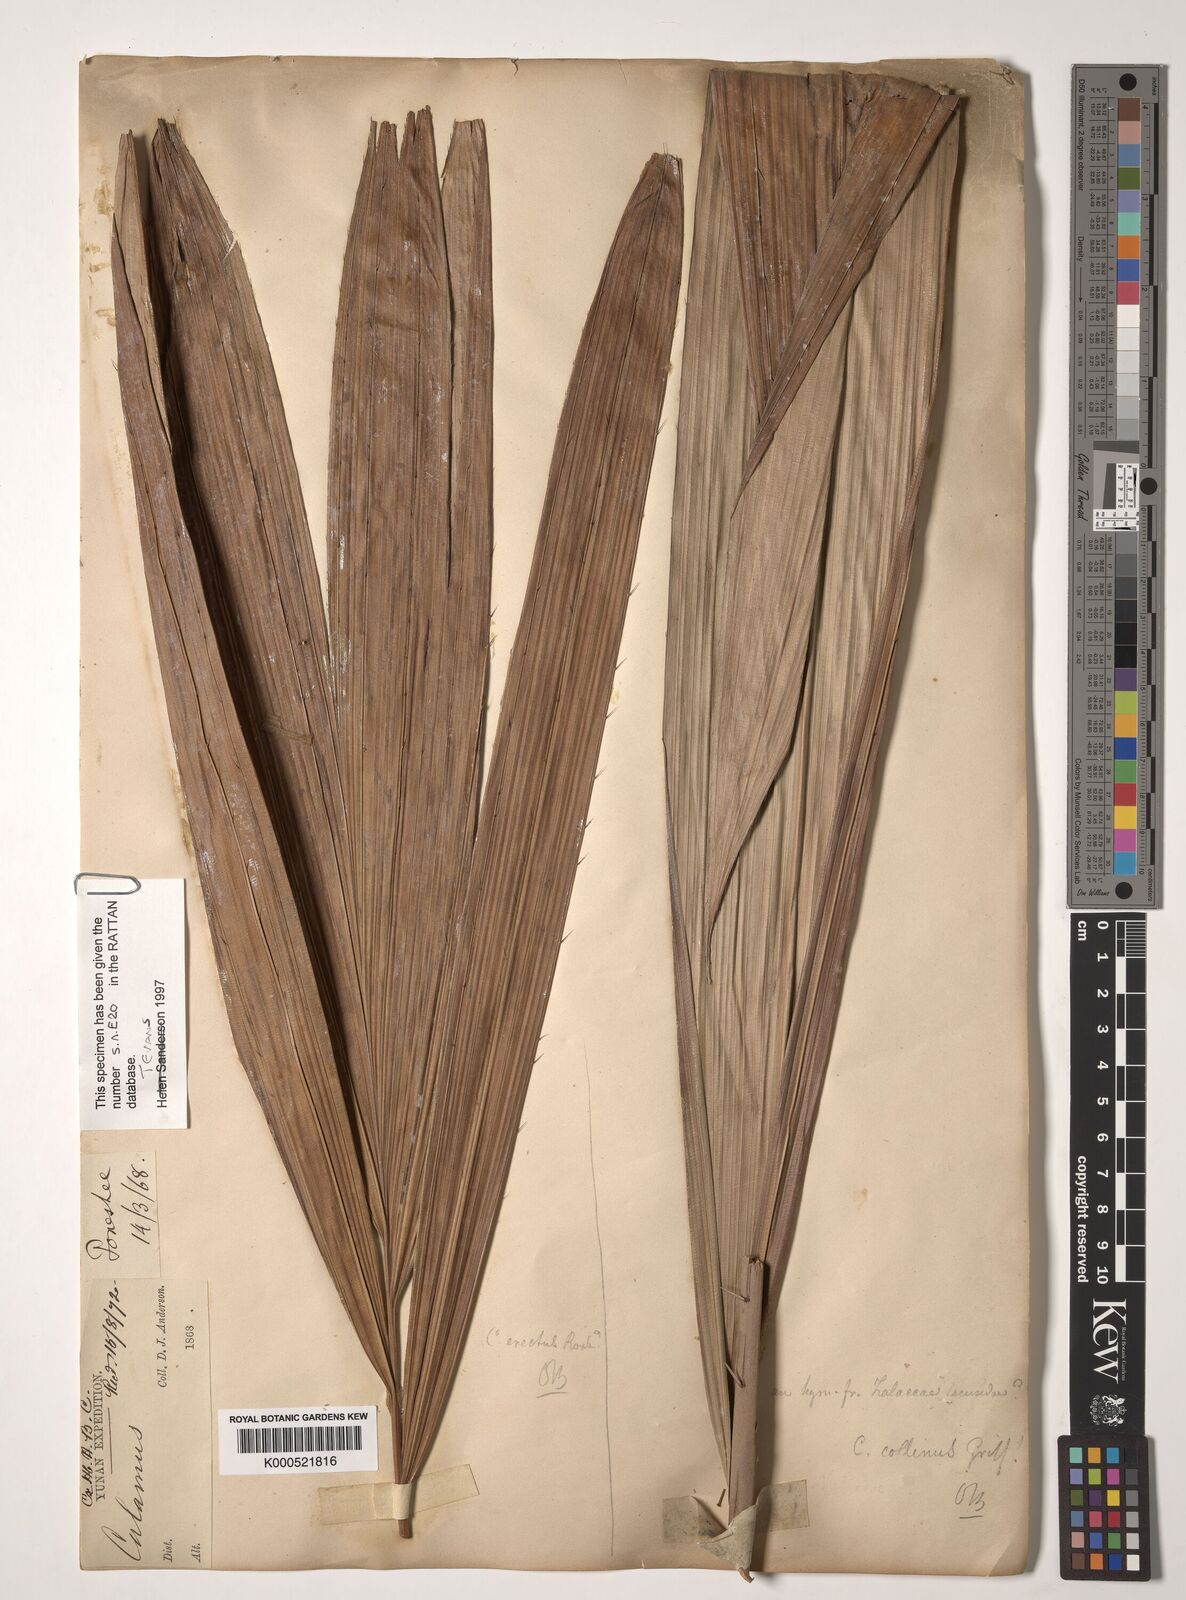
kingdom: Plantae
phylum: Tracheophyta
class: Liliopsida
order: Arecales
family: Arecaceae
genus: Calamus
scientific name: Calamus erectus
